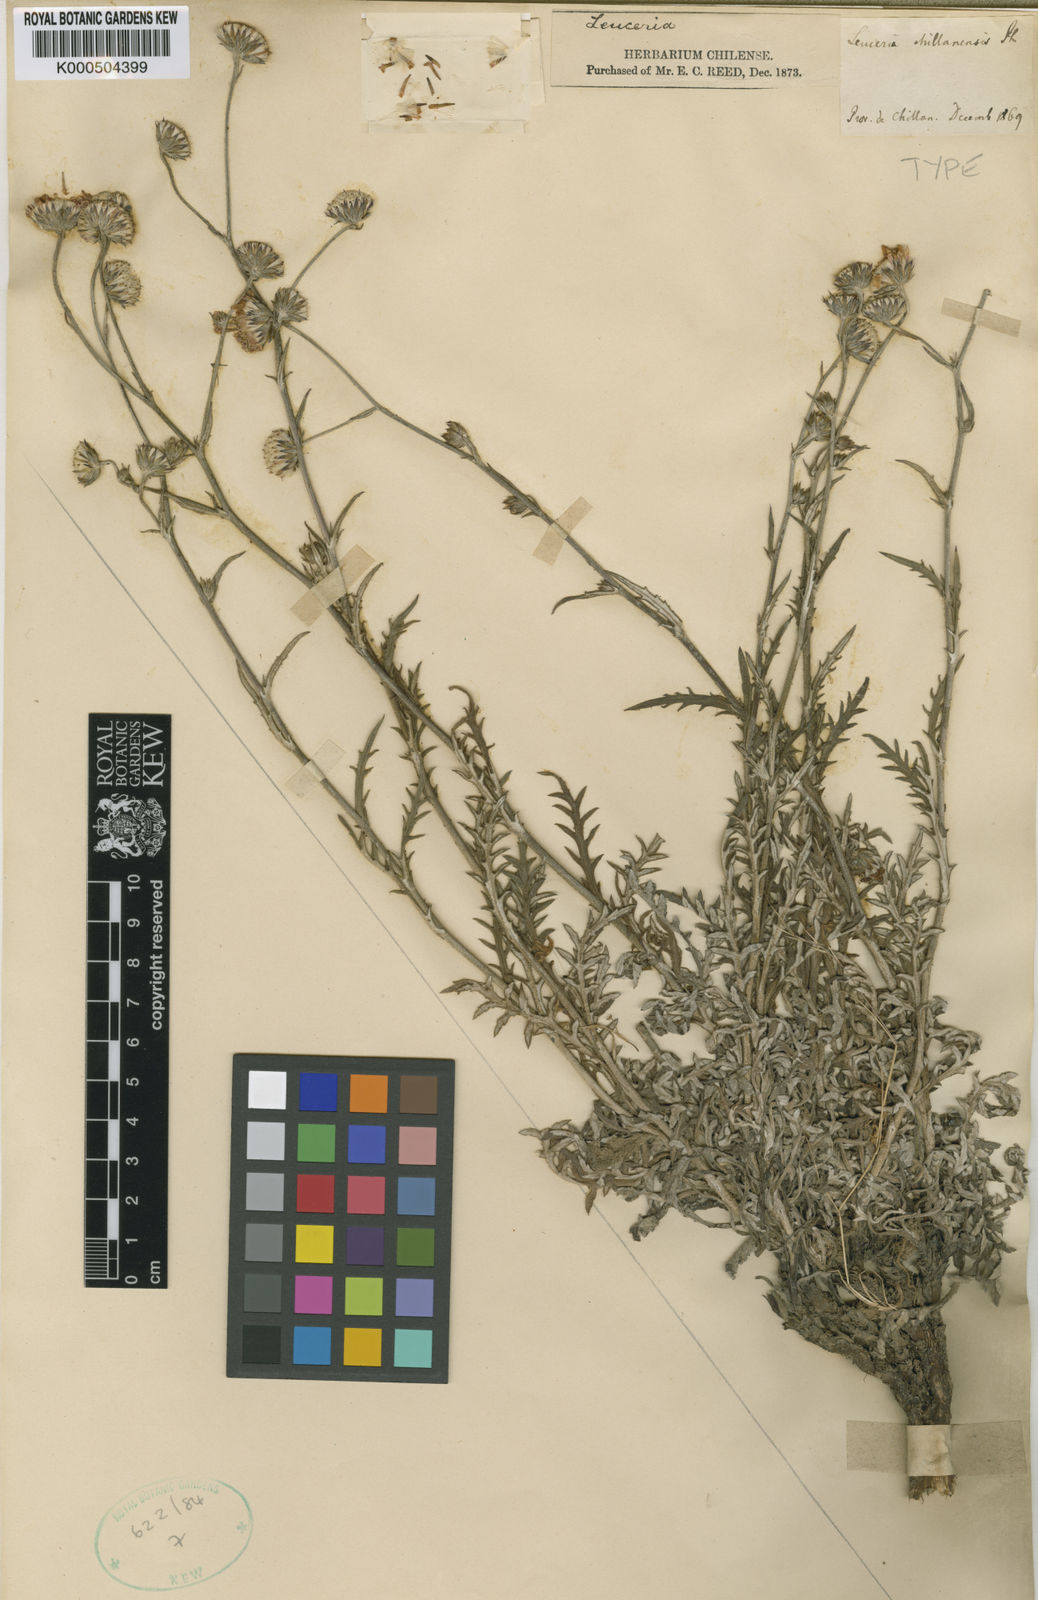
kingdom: Plantae
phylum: Tracheophyta
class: Magnoliopsida
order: Asterales
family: Asteraceae
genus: Leucheria
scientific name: Leucheria viscida
